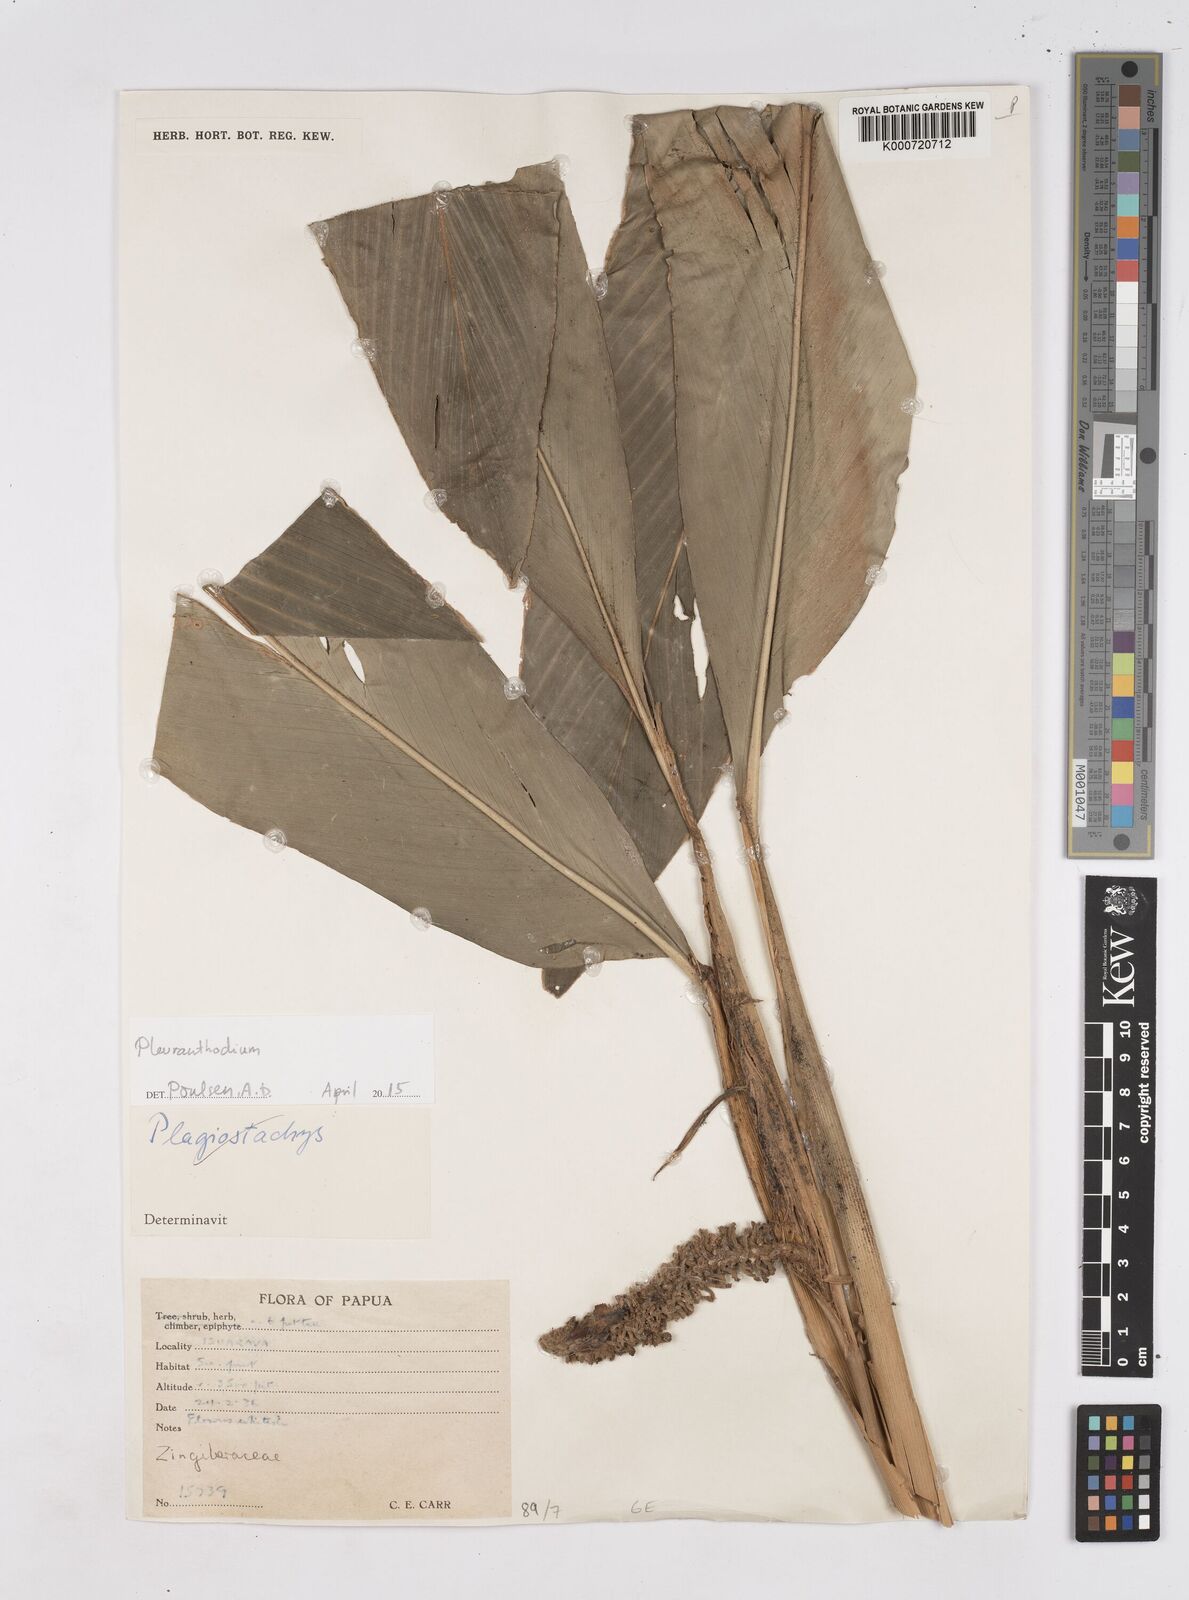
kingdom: Plantae
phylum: Tracheophyta
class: Liliopsida
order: Zingiberales
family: Zingiberaceae
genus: Pleuranthodium
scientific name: Pleuranthodium
